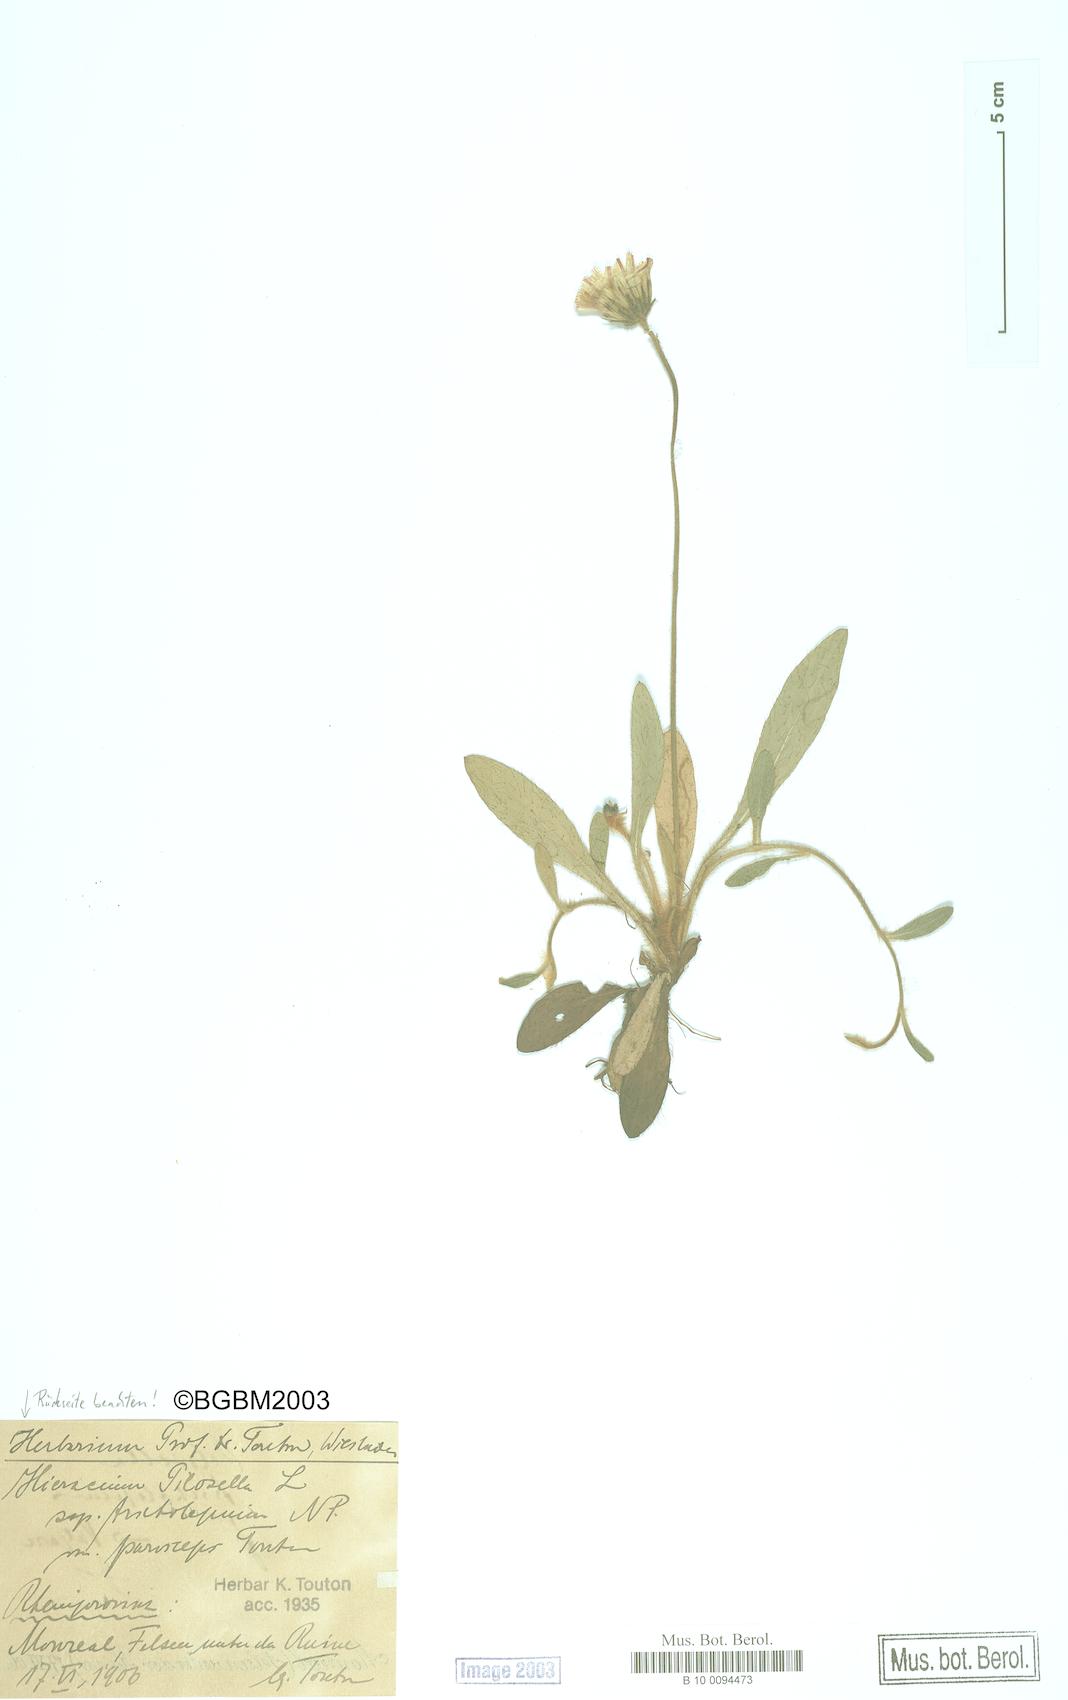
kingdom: Plantae
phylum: Tracheophyta
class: Magnoliopsida
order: Asterales
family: Asteraceae
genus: Pilosella
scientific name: Pilosella officinarum
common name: Mouse-ear hawkweed
